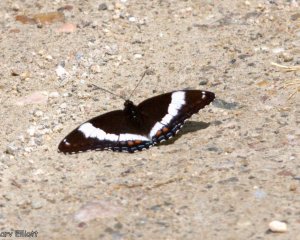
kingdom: Animalia
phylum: Arthropoda
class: Insecta
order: Lepidoptera
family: Nymphalidae
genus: Limenitis
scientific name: Limenitis arthemis
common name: Red-spotted Admiral
